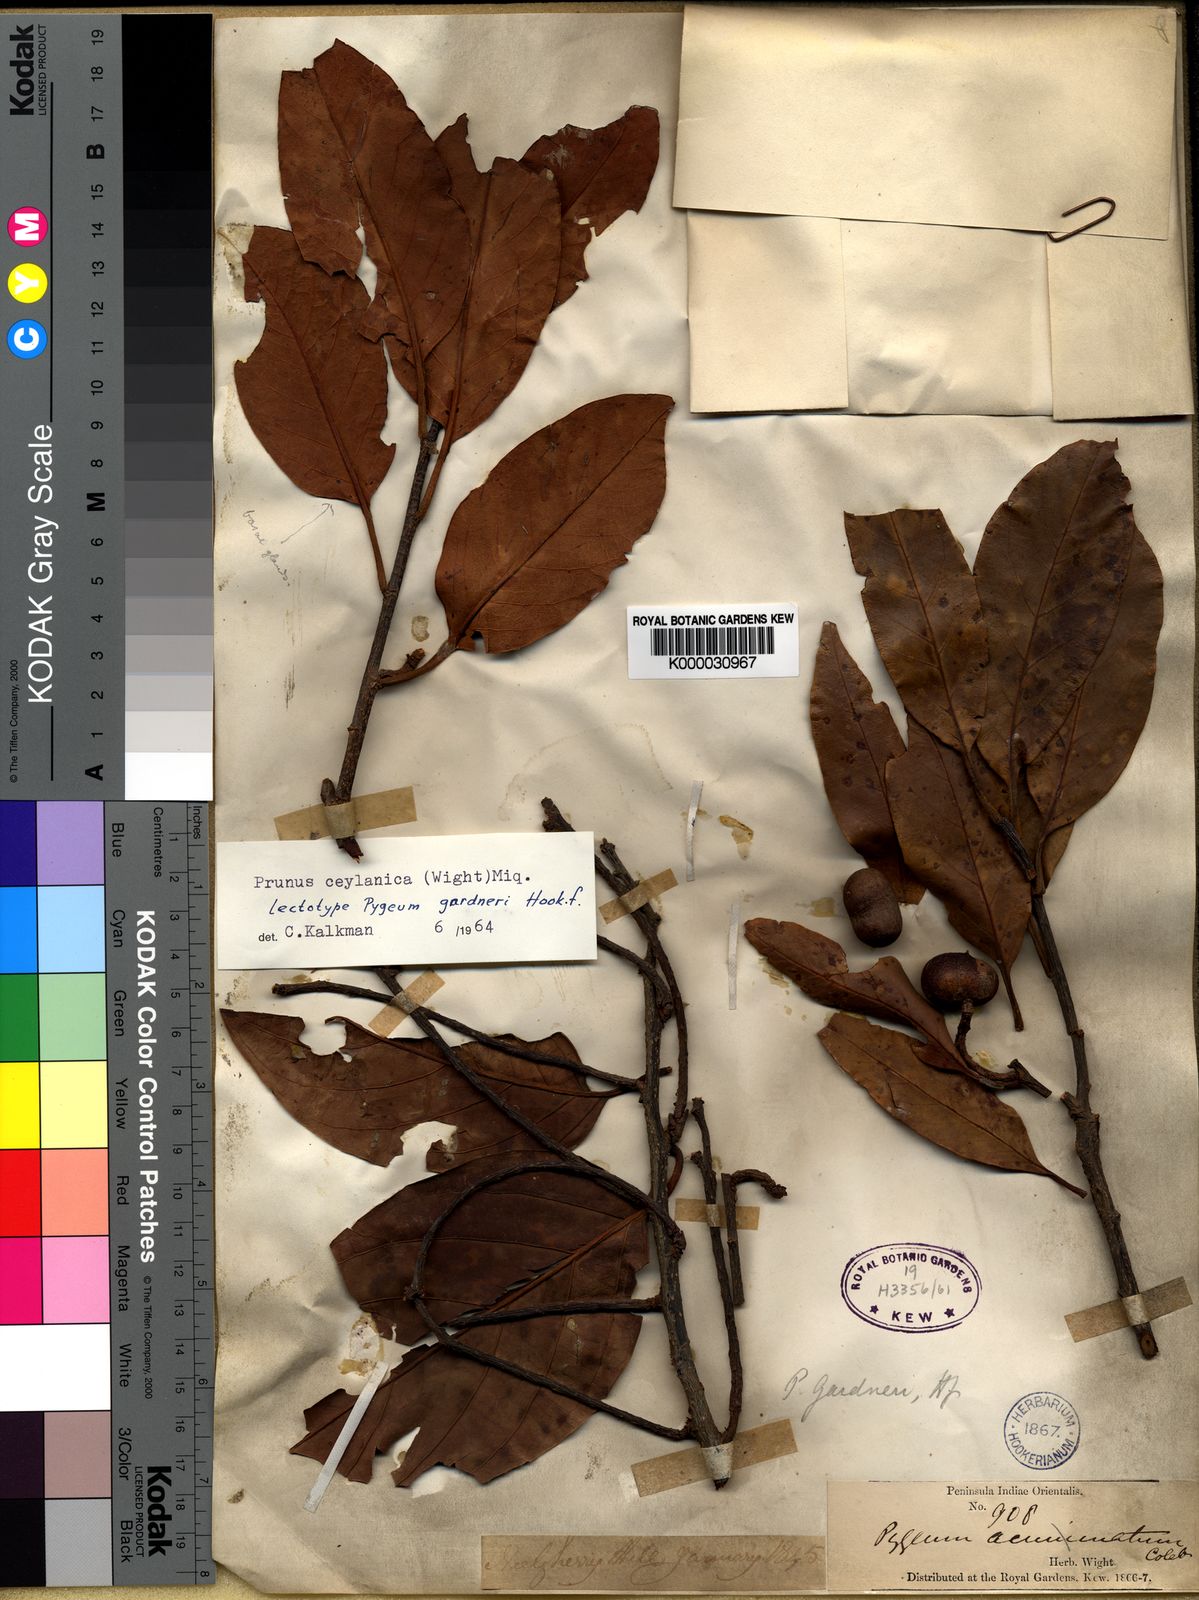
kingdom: Plantae
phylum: Tracheophyta
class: Magnoliopsida
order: Rosales
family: Rosaceae
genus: Prunus
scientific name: Prunus ceylanica
